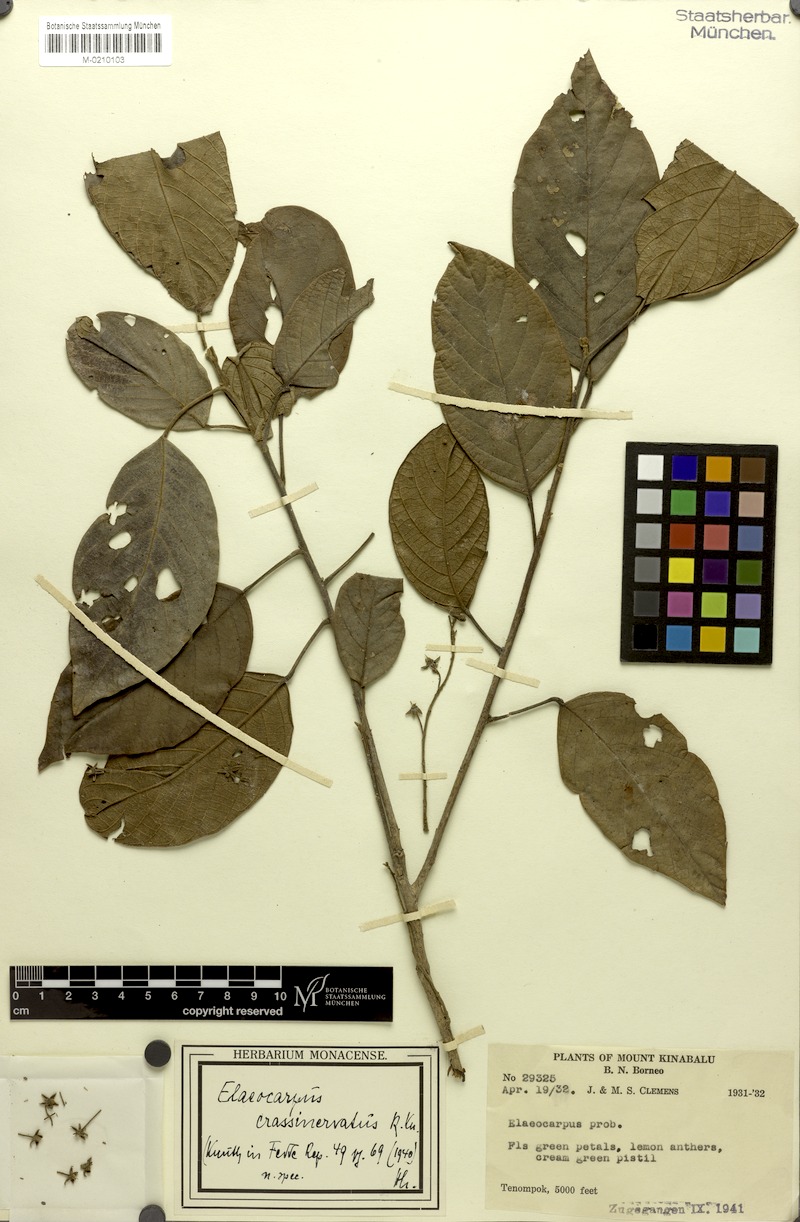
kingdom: Plantae
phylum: Tracheophyta
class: Magnoliopsida
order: Oxalidales
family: Elaeocarpaceae
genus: Elaeocarpus
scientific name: Elaeocarpus crassinervatus
